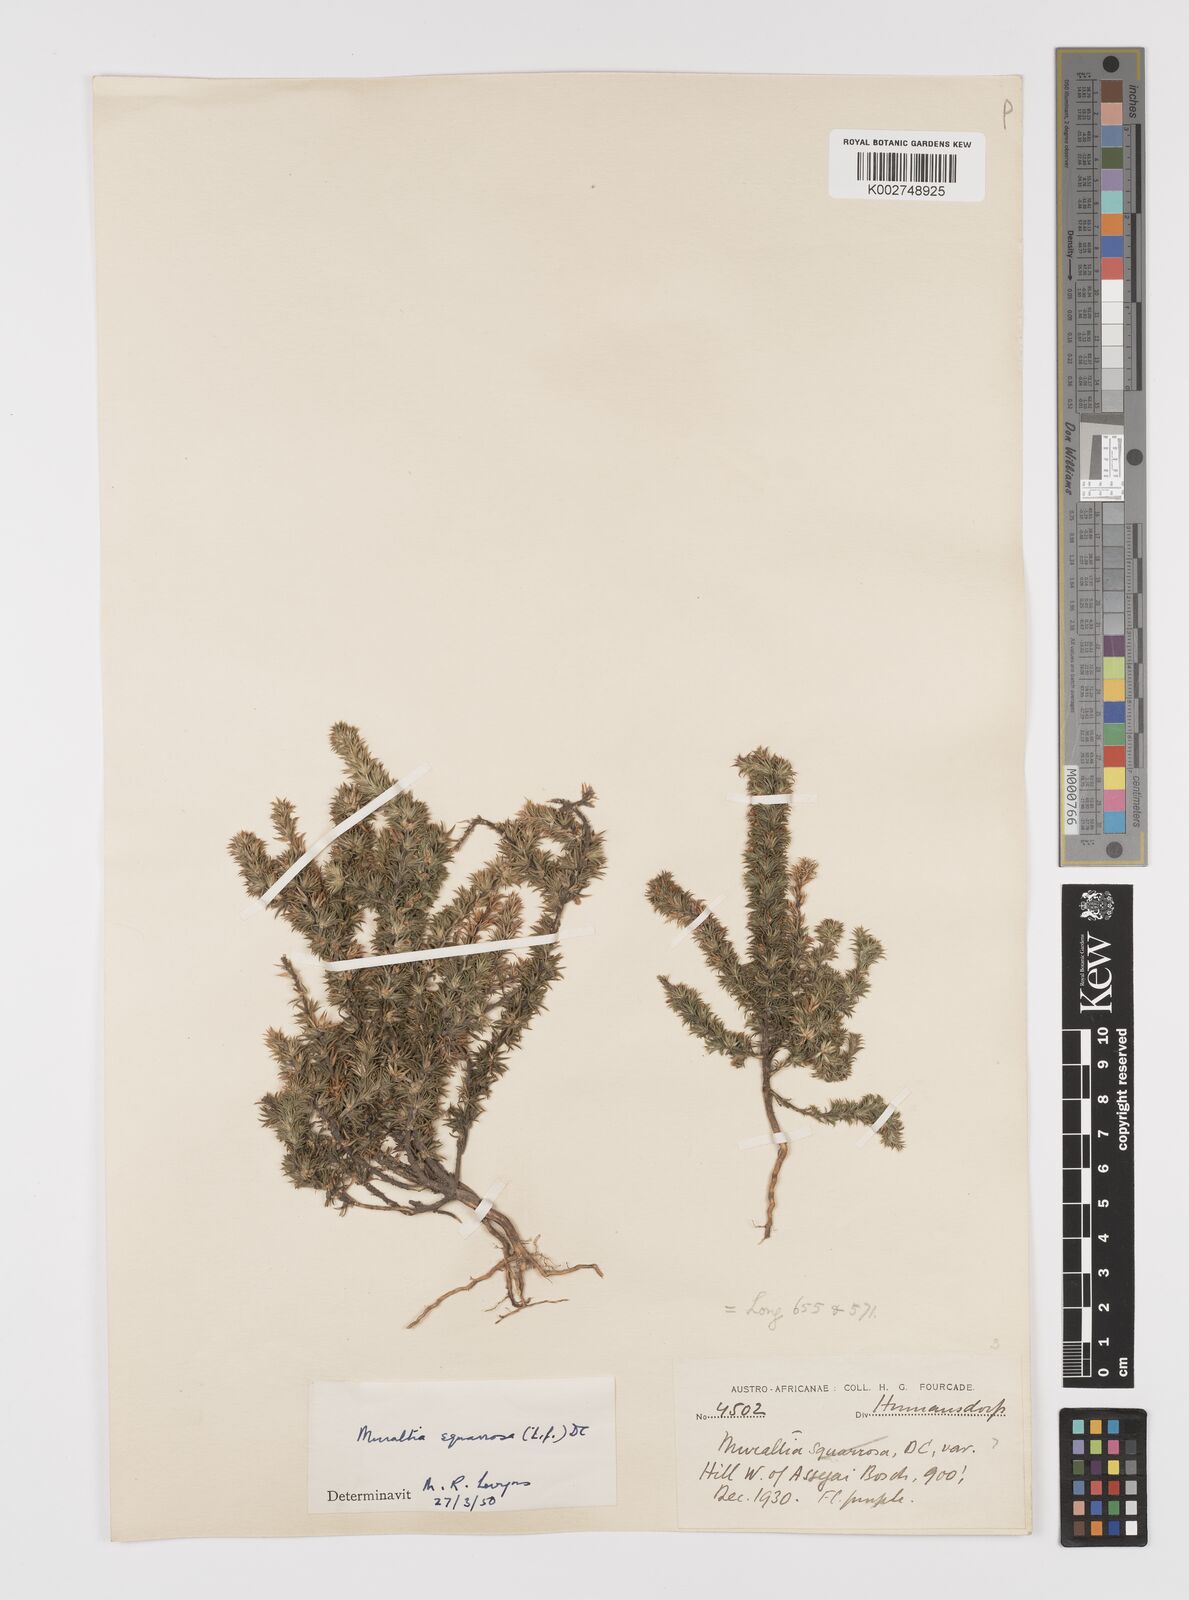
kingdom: Plantae
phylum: Tracheophyta
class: Magnoliopsida
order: Fabales
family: Polygalaceae
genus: Muraltia
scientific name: Muraltia squarrosa
